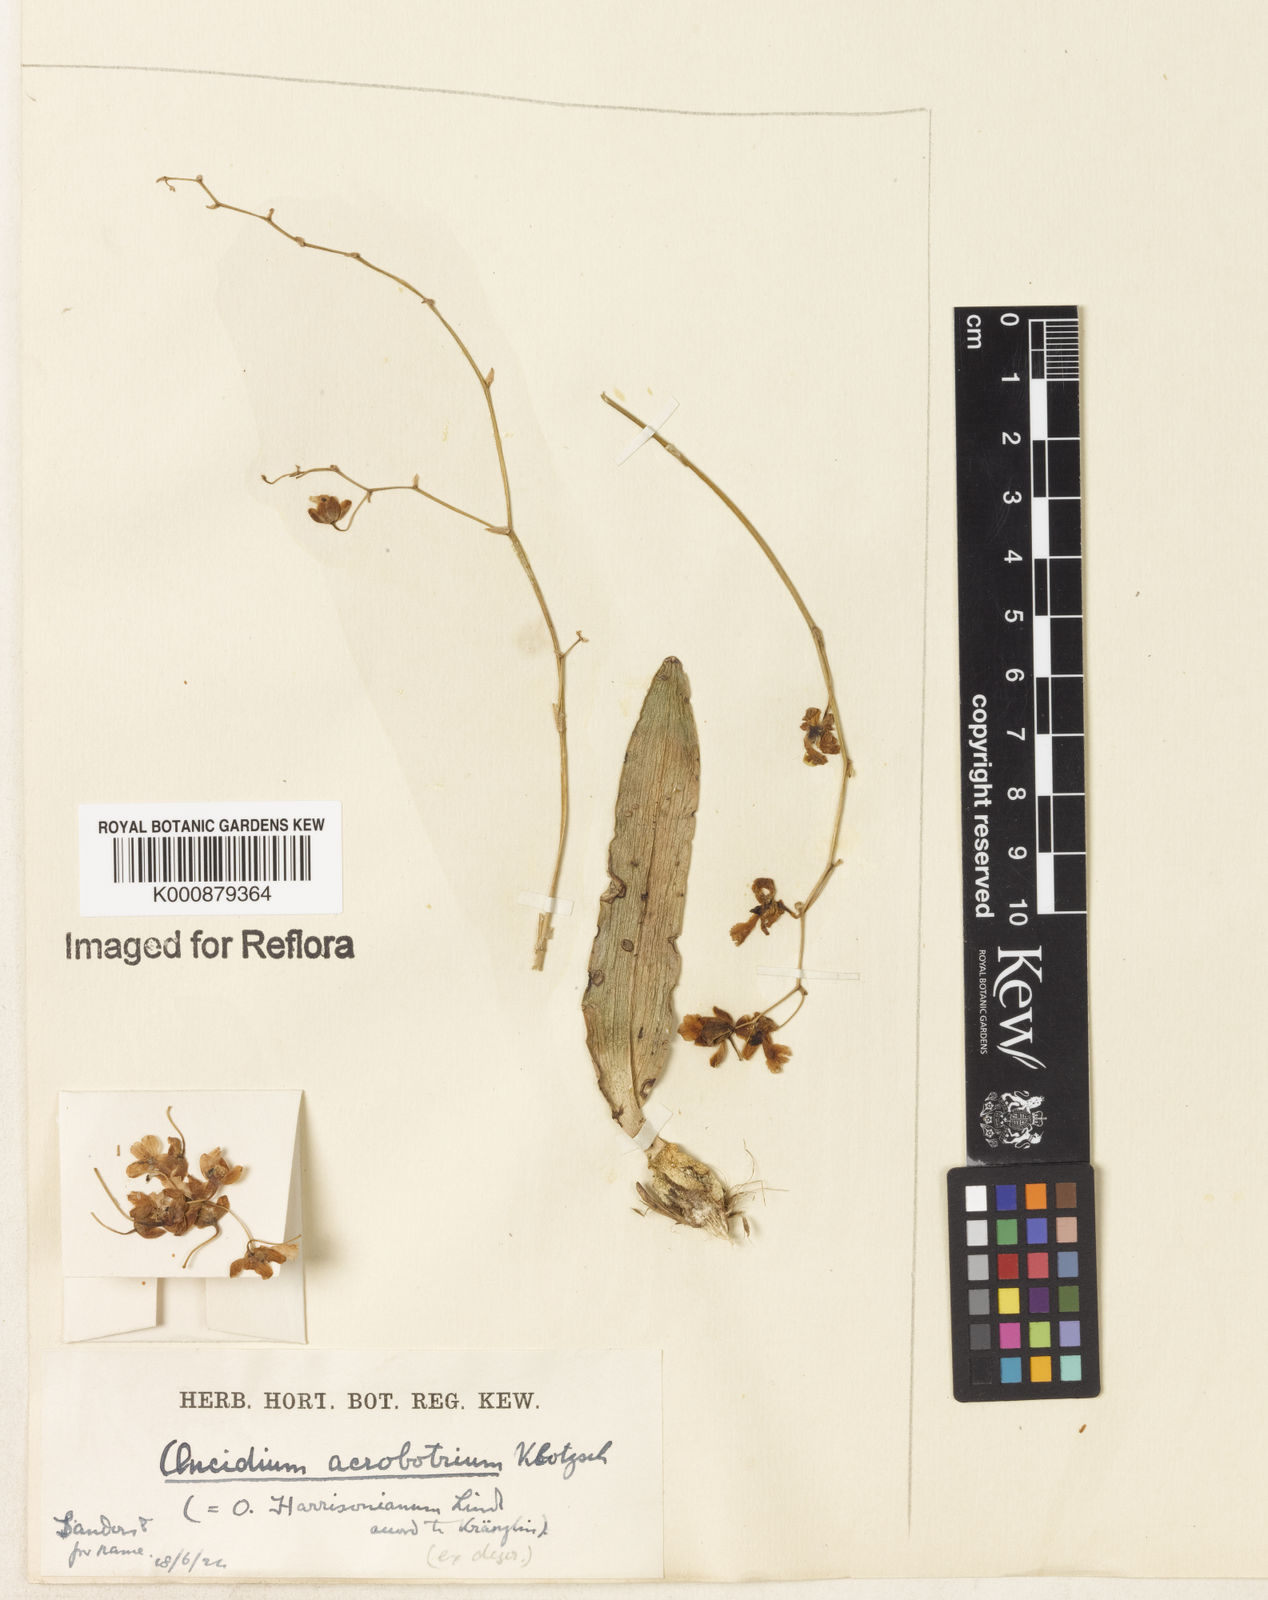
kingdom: Plantae
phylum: Tracheophyta
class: Liliopsida
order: Asparagales
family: Orchidaceae
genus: Grandiphyllum
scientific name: Grandiphyllum auricula
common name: Mule-ear orchid
